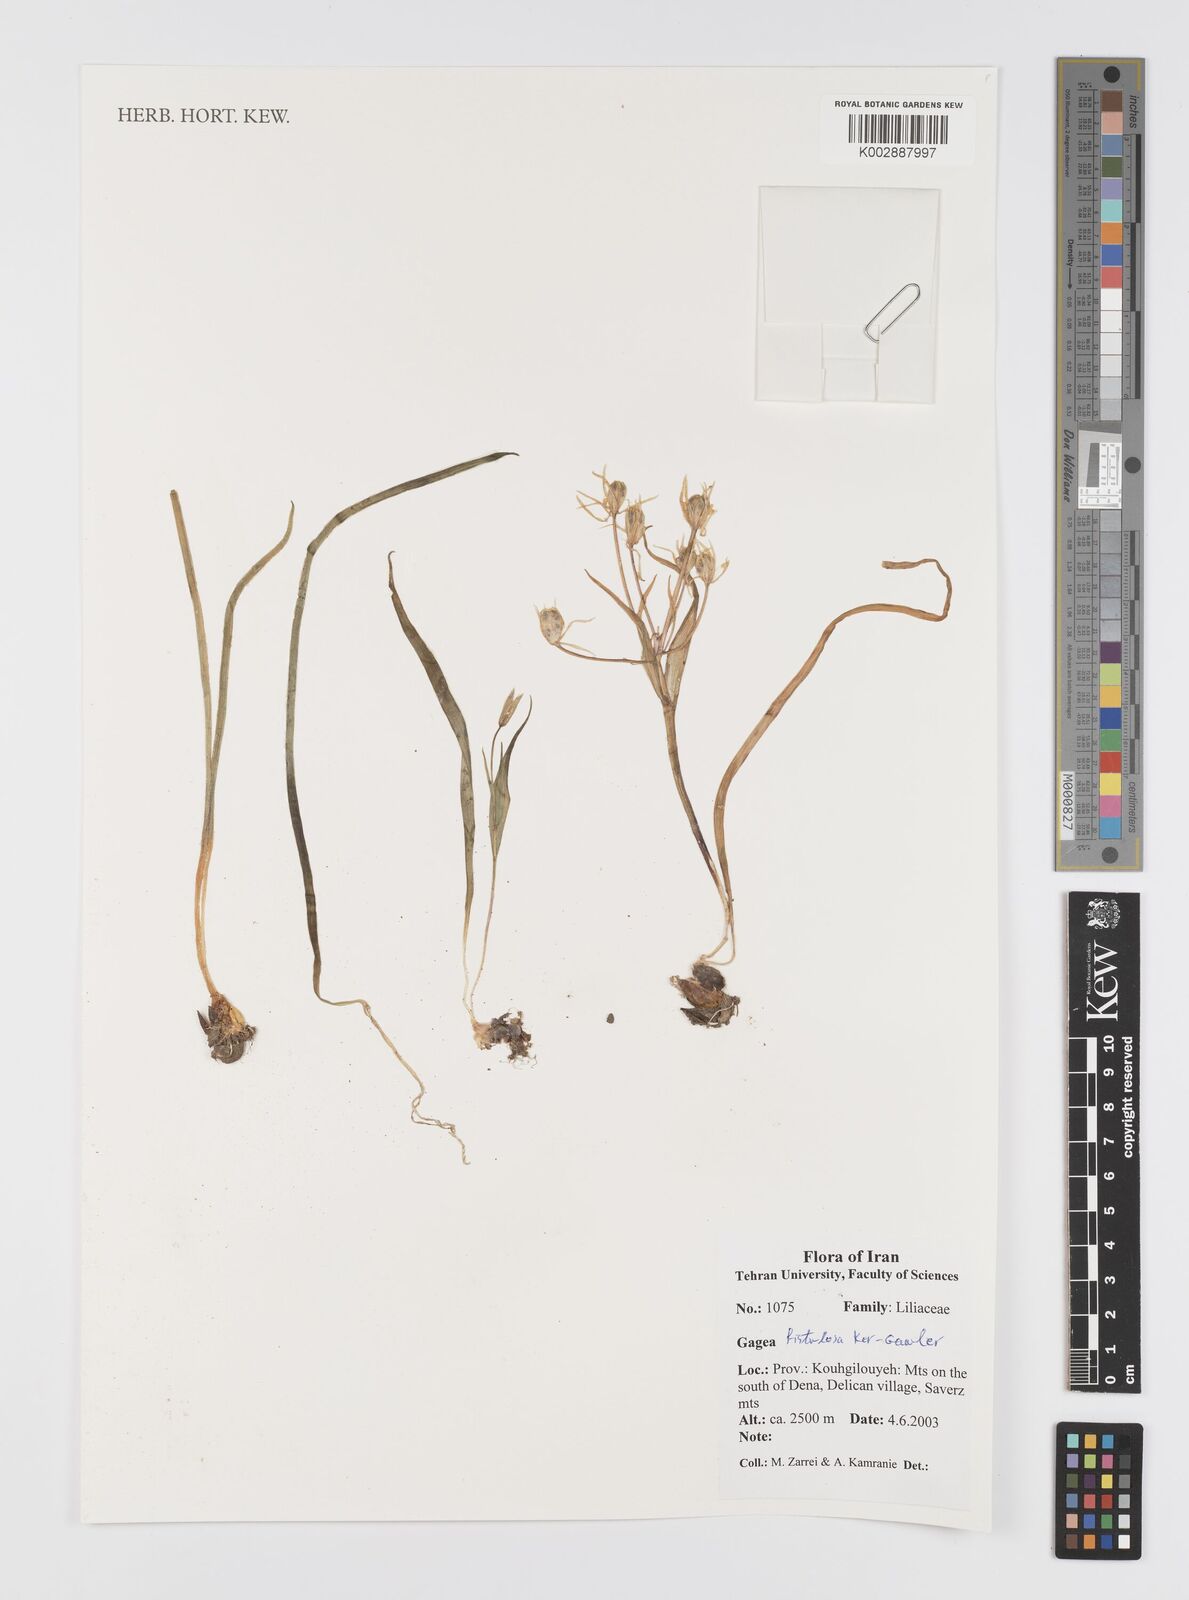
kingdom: Plantae
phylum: Tracheophyta
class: Liliopsida
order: Liliales
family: Liliaceae
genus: Gagea
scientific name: Gagea bohemica
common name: Early star-of-bethlehem
